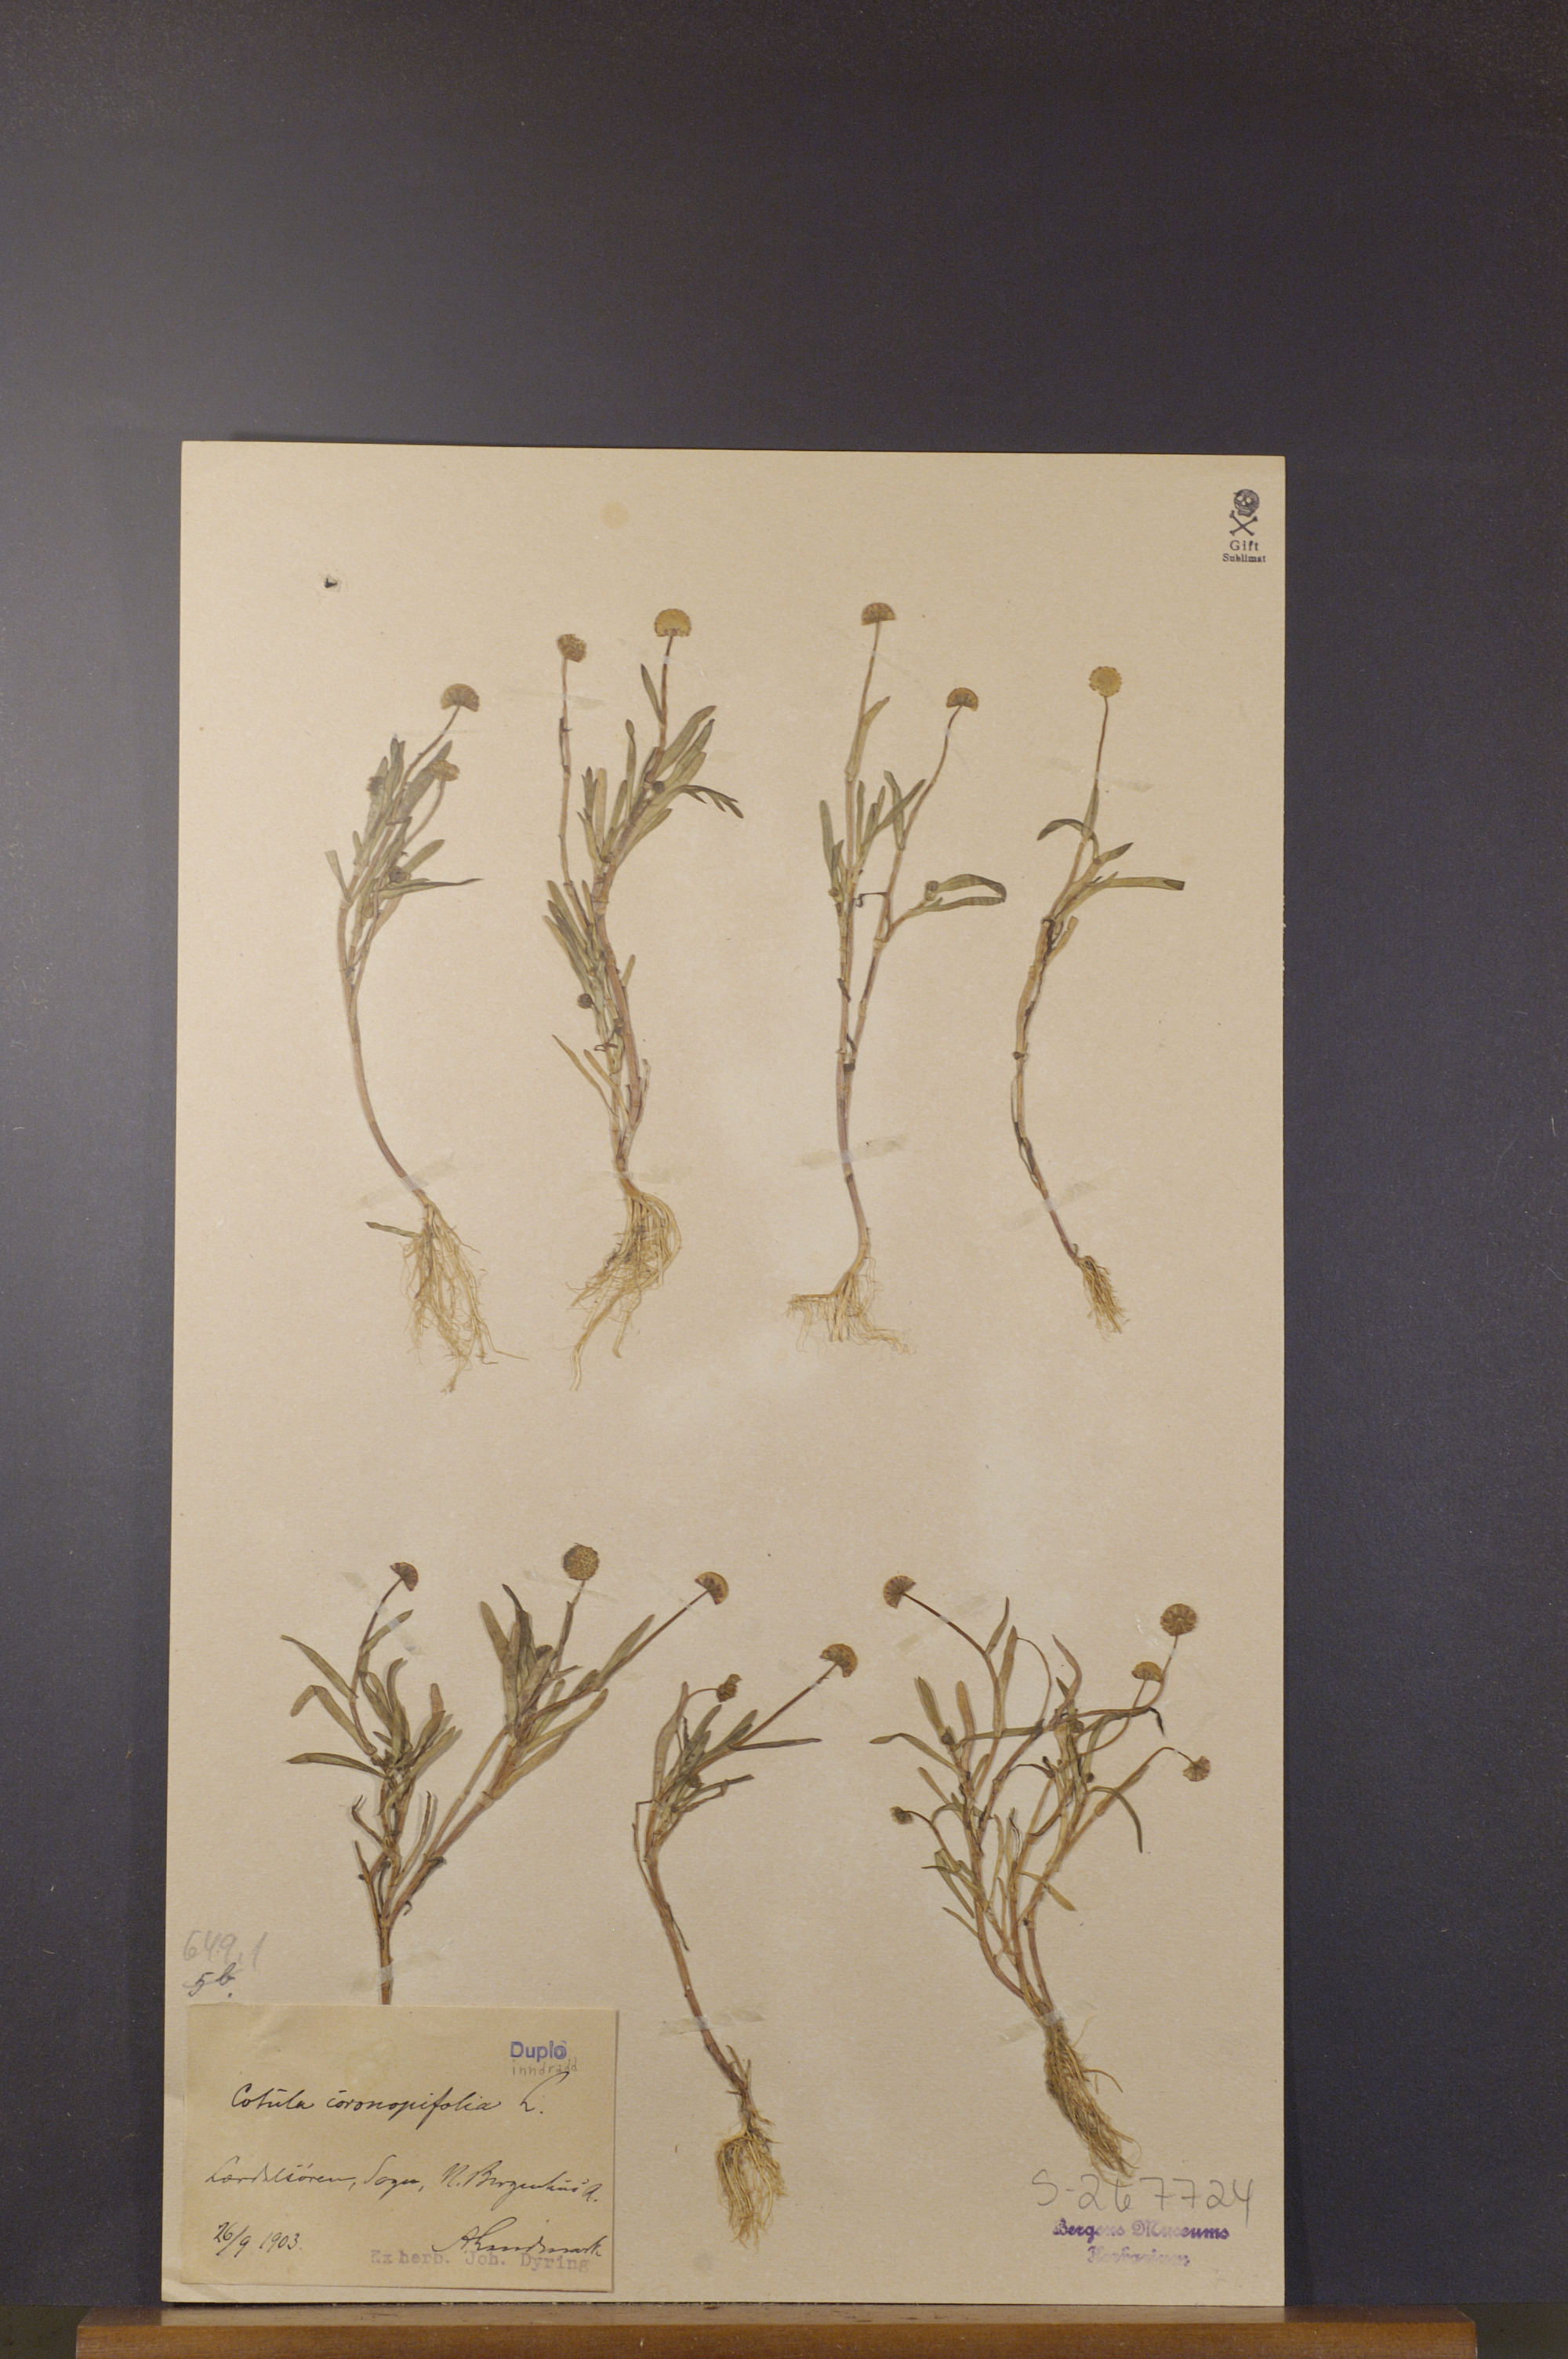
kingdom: Plantae
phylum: Tracheophyta
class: Magnoliopsida
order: Asterales
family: Asteraceae
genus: Cotula
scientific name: Cotula coronopifolia
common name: Buttonweed
